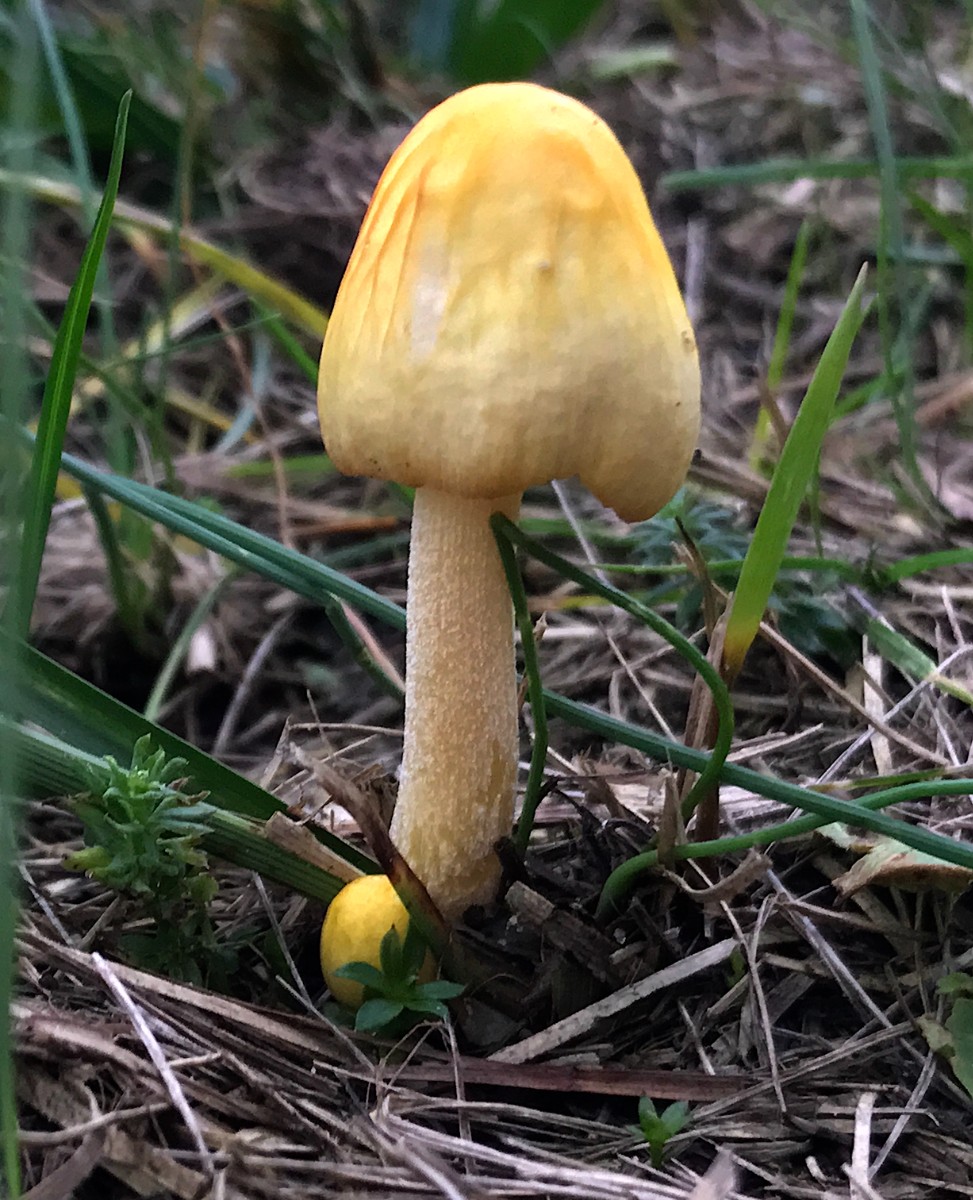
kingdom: Fungi
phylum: Basidiomycota
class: Agaricomycetes
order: Agaricales
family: Bolbitiaceae
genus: Bolbitius
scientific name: Bolbitius titubans
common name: almindelig gulhat
